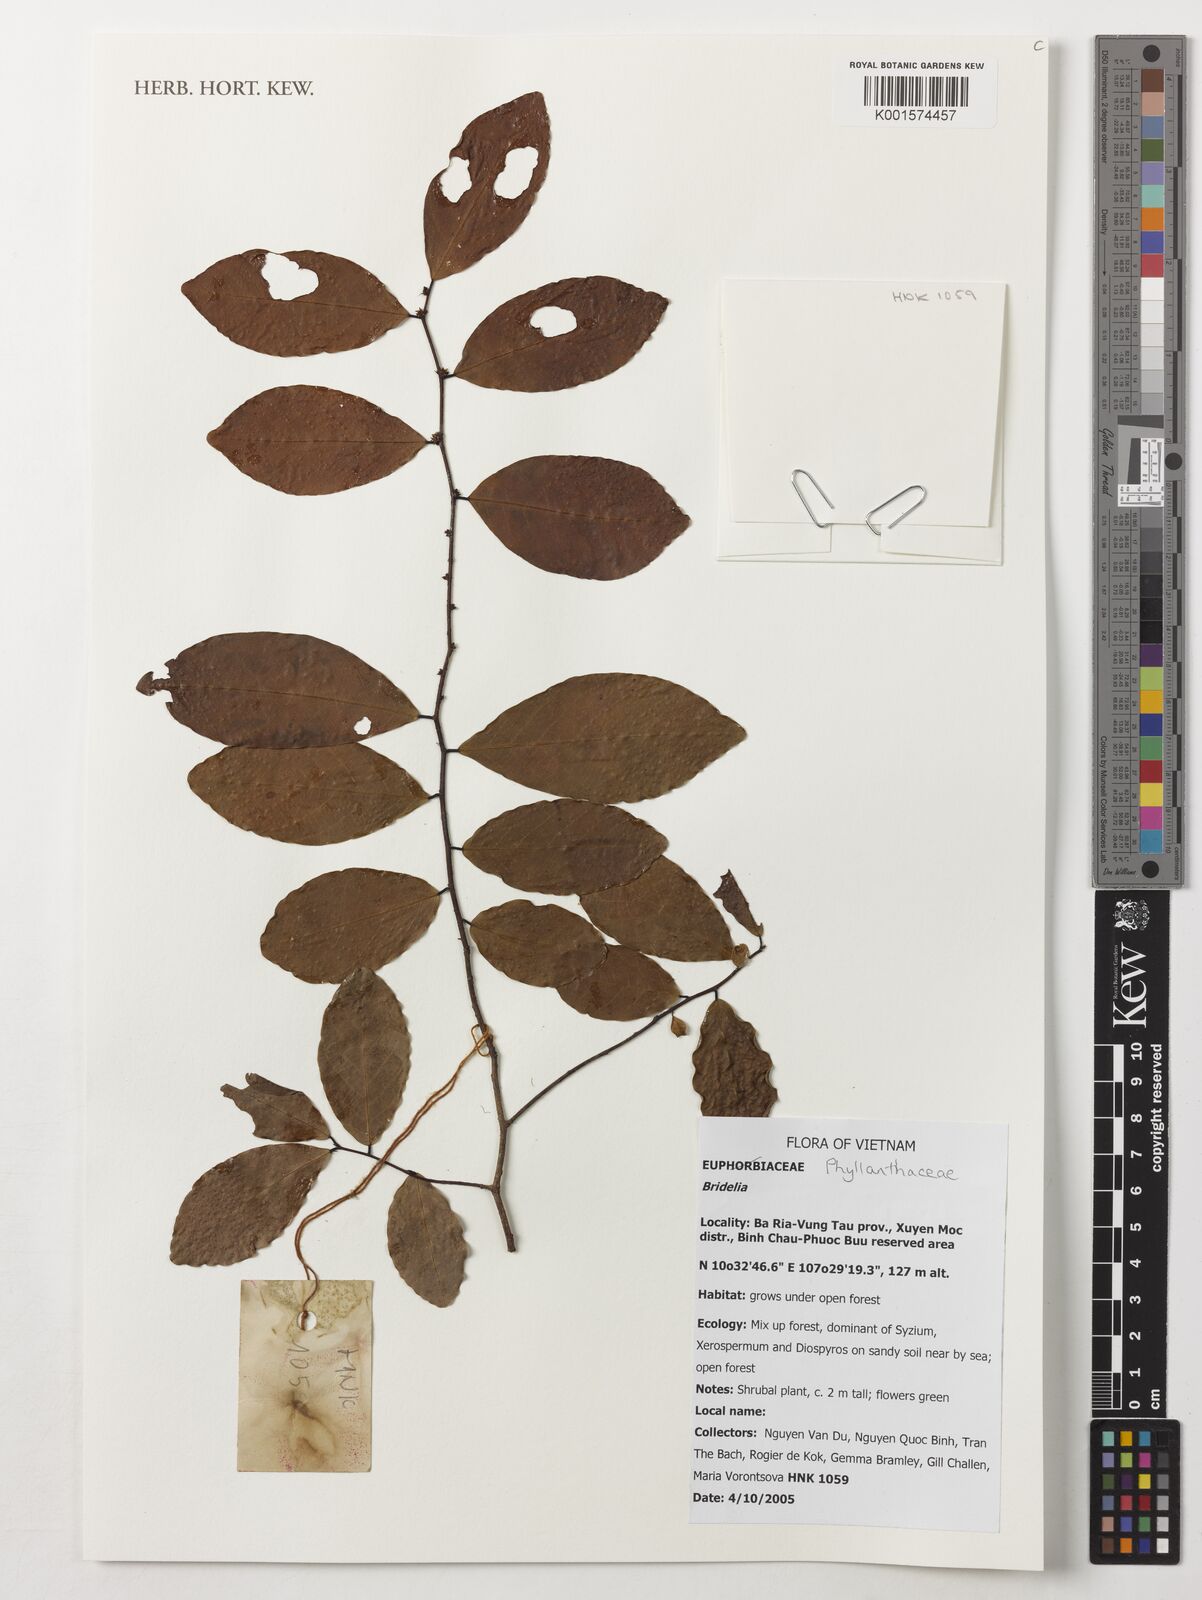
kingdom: Plantae
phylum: Tracheophyta
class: Magnoliopsida
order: Malpighiales
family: Phyllanthaceae
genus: Bridelia
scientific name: Bridelia
